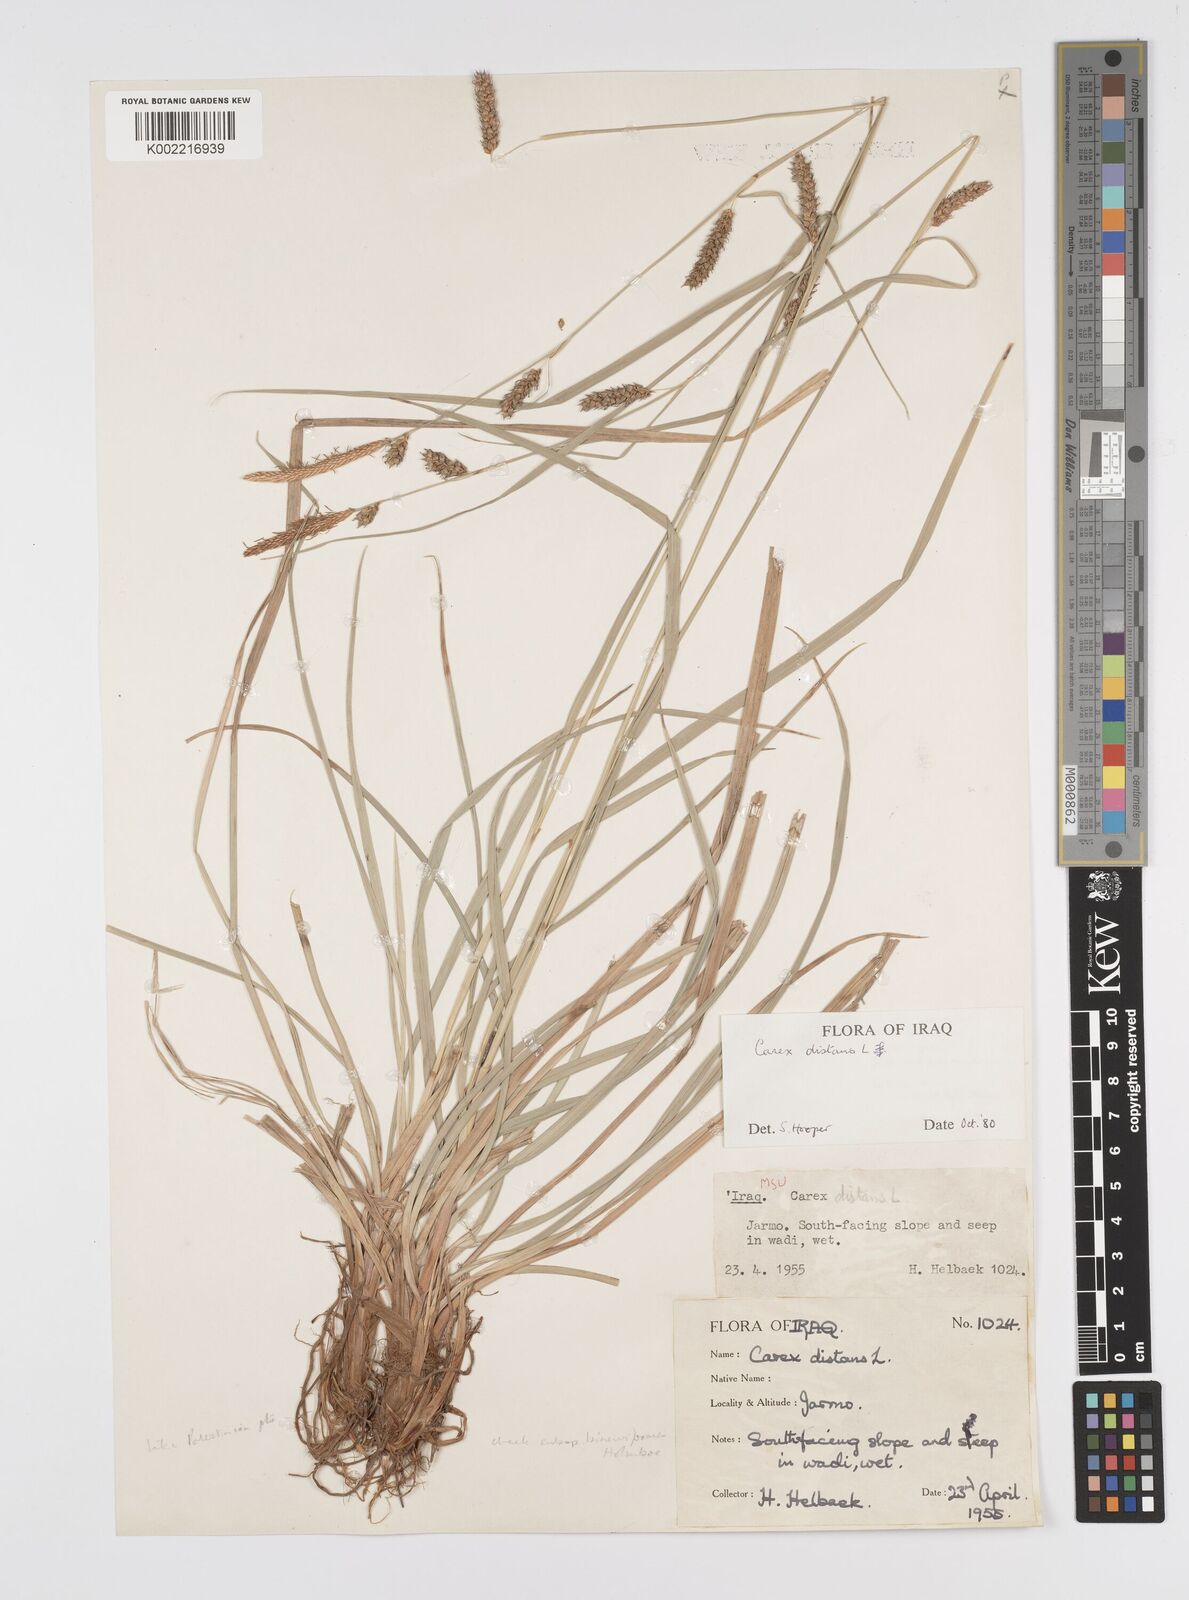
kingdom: Plantae
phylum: Tracheophyta
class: Liliopsida
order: Poales
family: Cyperaceae
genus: Carex
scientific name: Carex distans
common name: Distant sedge
